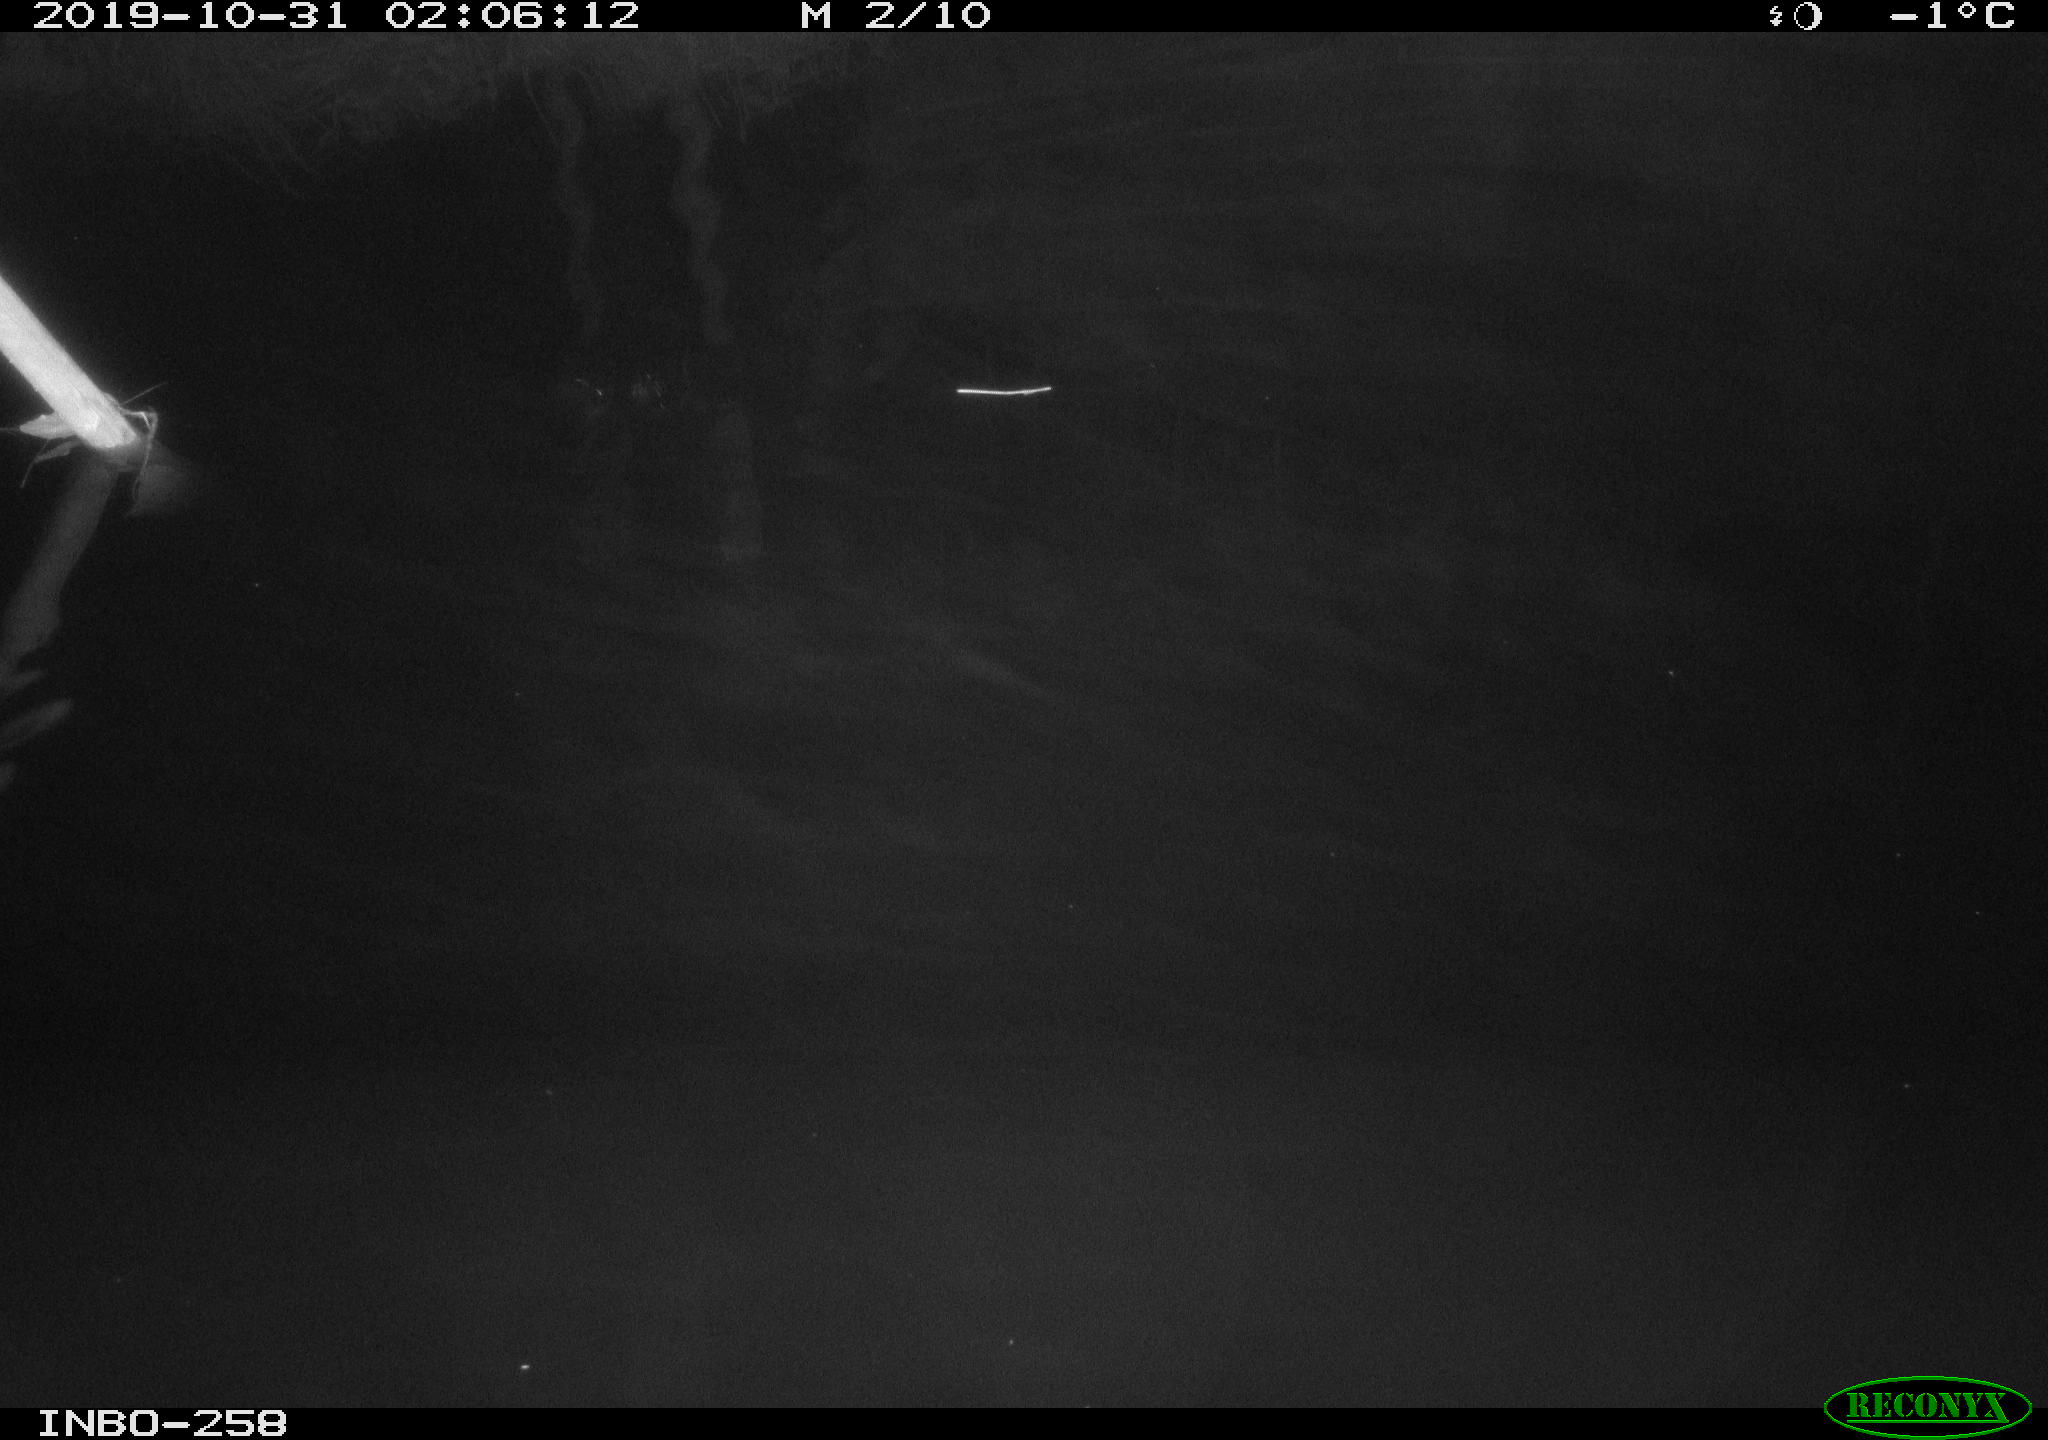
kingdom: Animalia
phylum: Chordata
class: Aves
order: Anseriformes
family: Anatidae
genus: Anas
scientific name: Anas platyrhynchos
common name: Mallard
